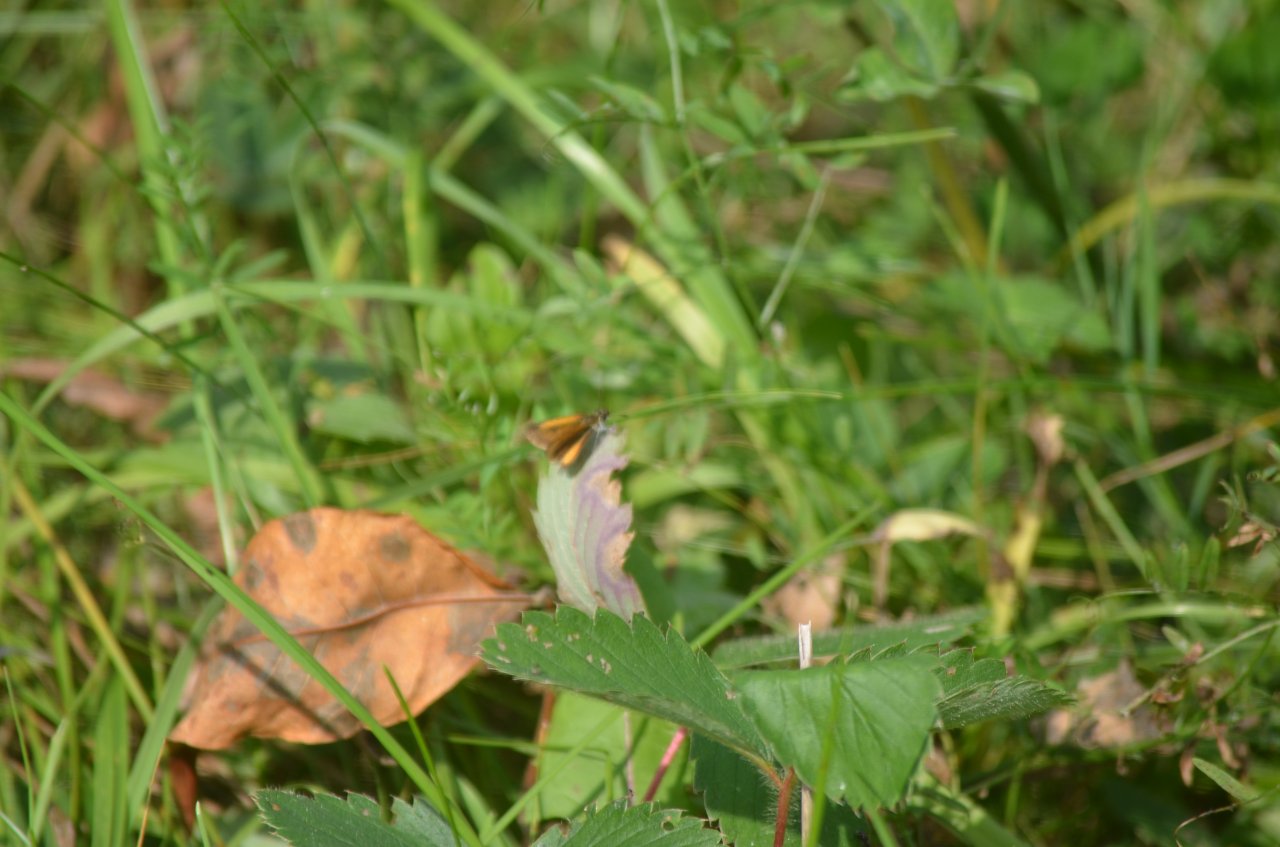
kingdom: Animalia
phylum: Arthropoda
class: Insecta
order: Lepidoptera
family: Hesperiidae
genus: Ancyloxypha
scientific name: Ancyloxypha numitor
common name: Least Skipper
